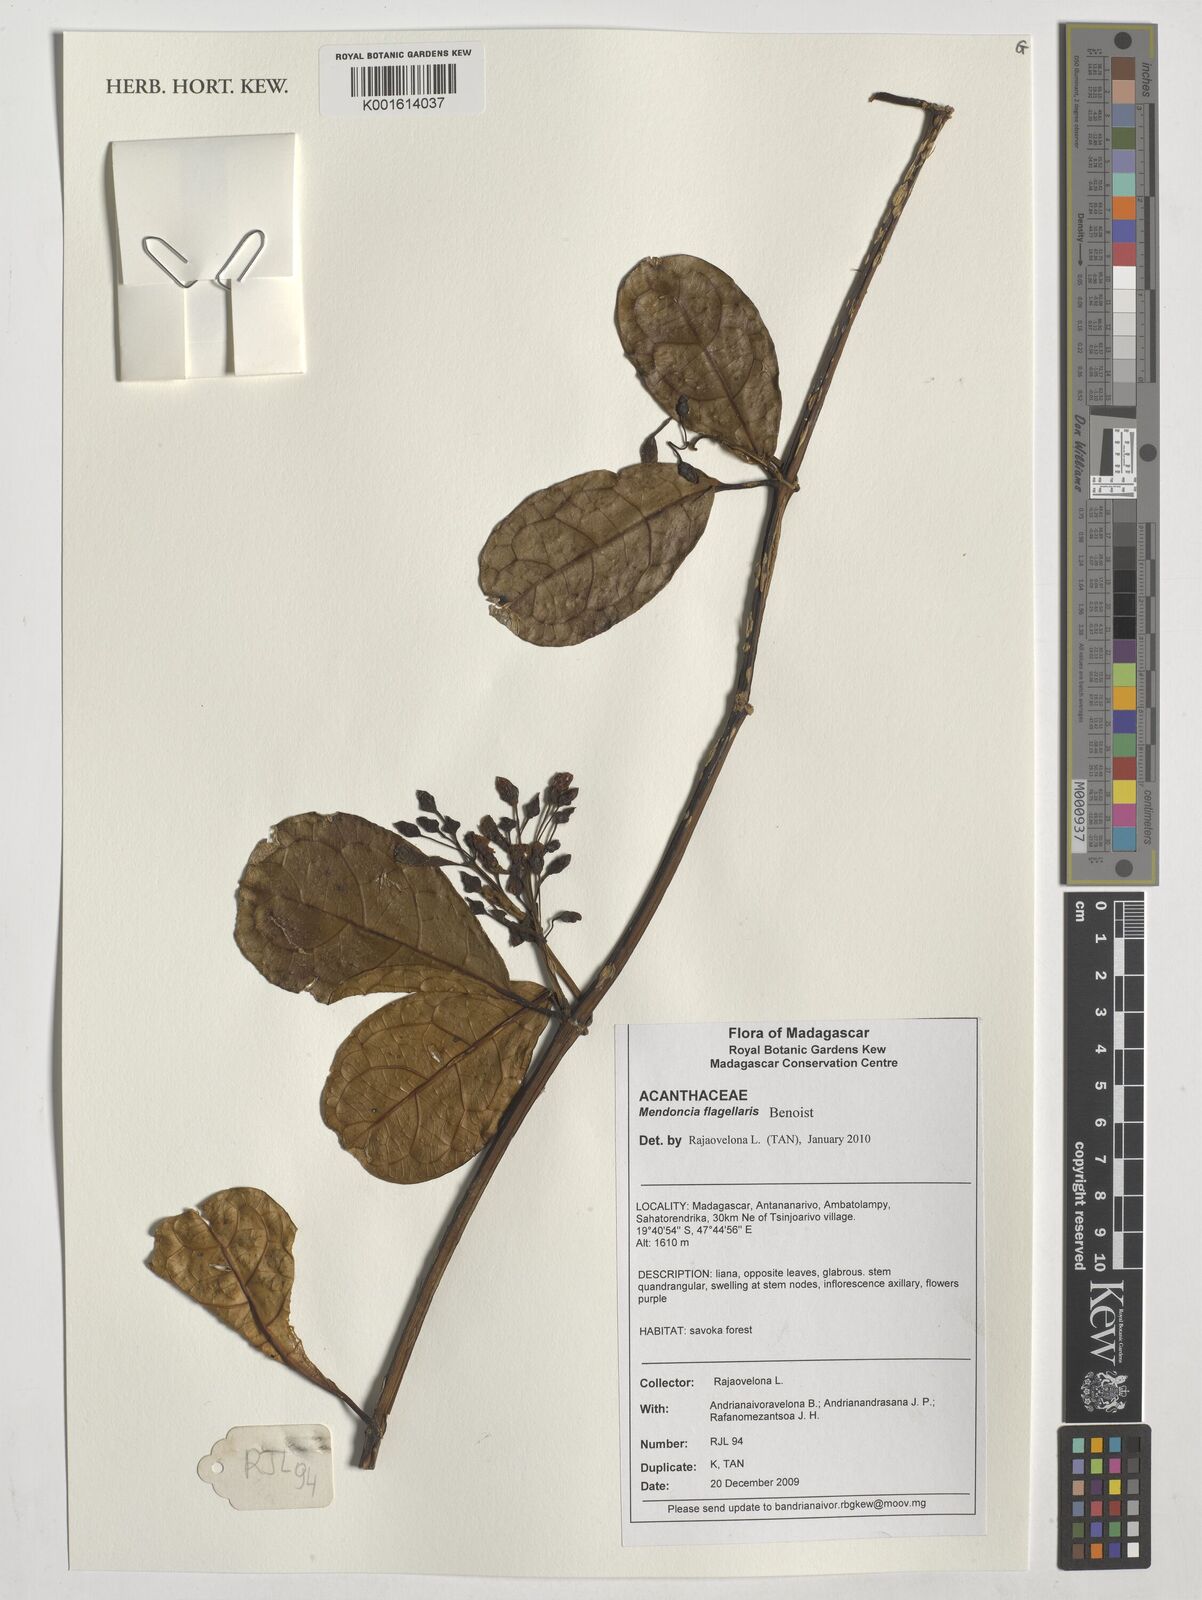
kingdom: Plantae
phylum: Tracheophyta
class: Magnoliopsida
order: Lamiales
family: Acanthaceae
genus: Mendoncia
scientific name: Mendoncia flagellaris
